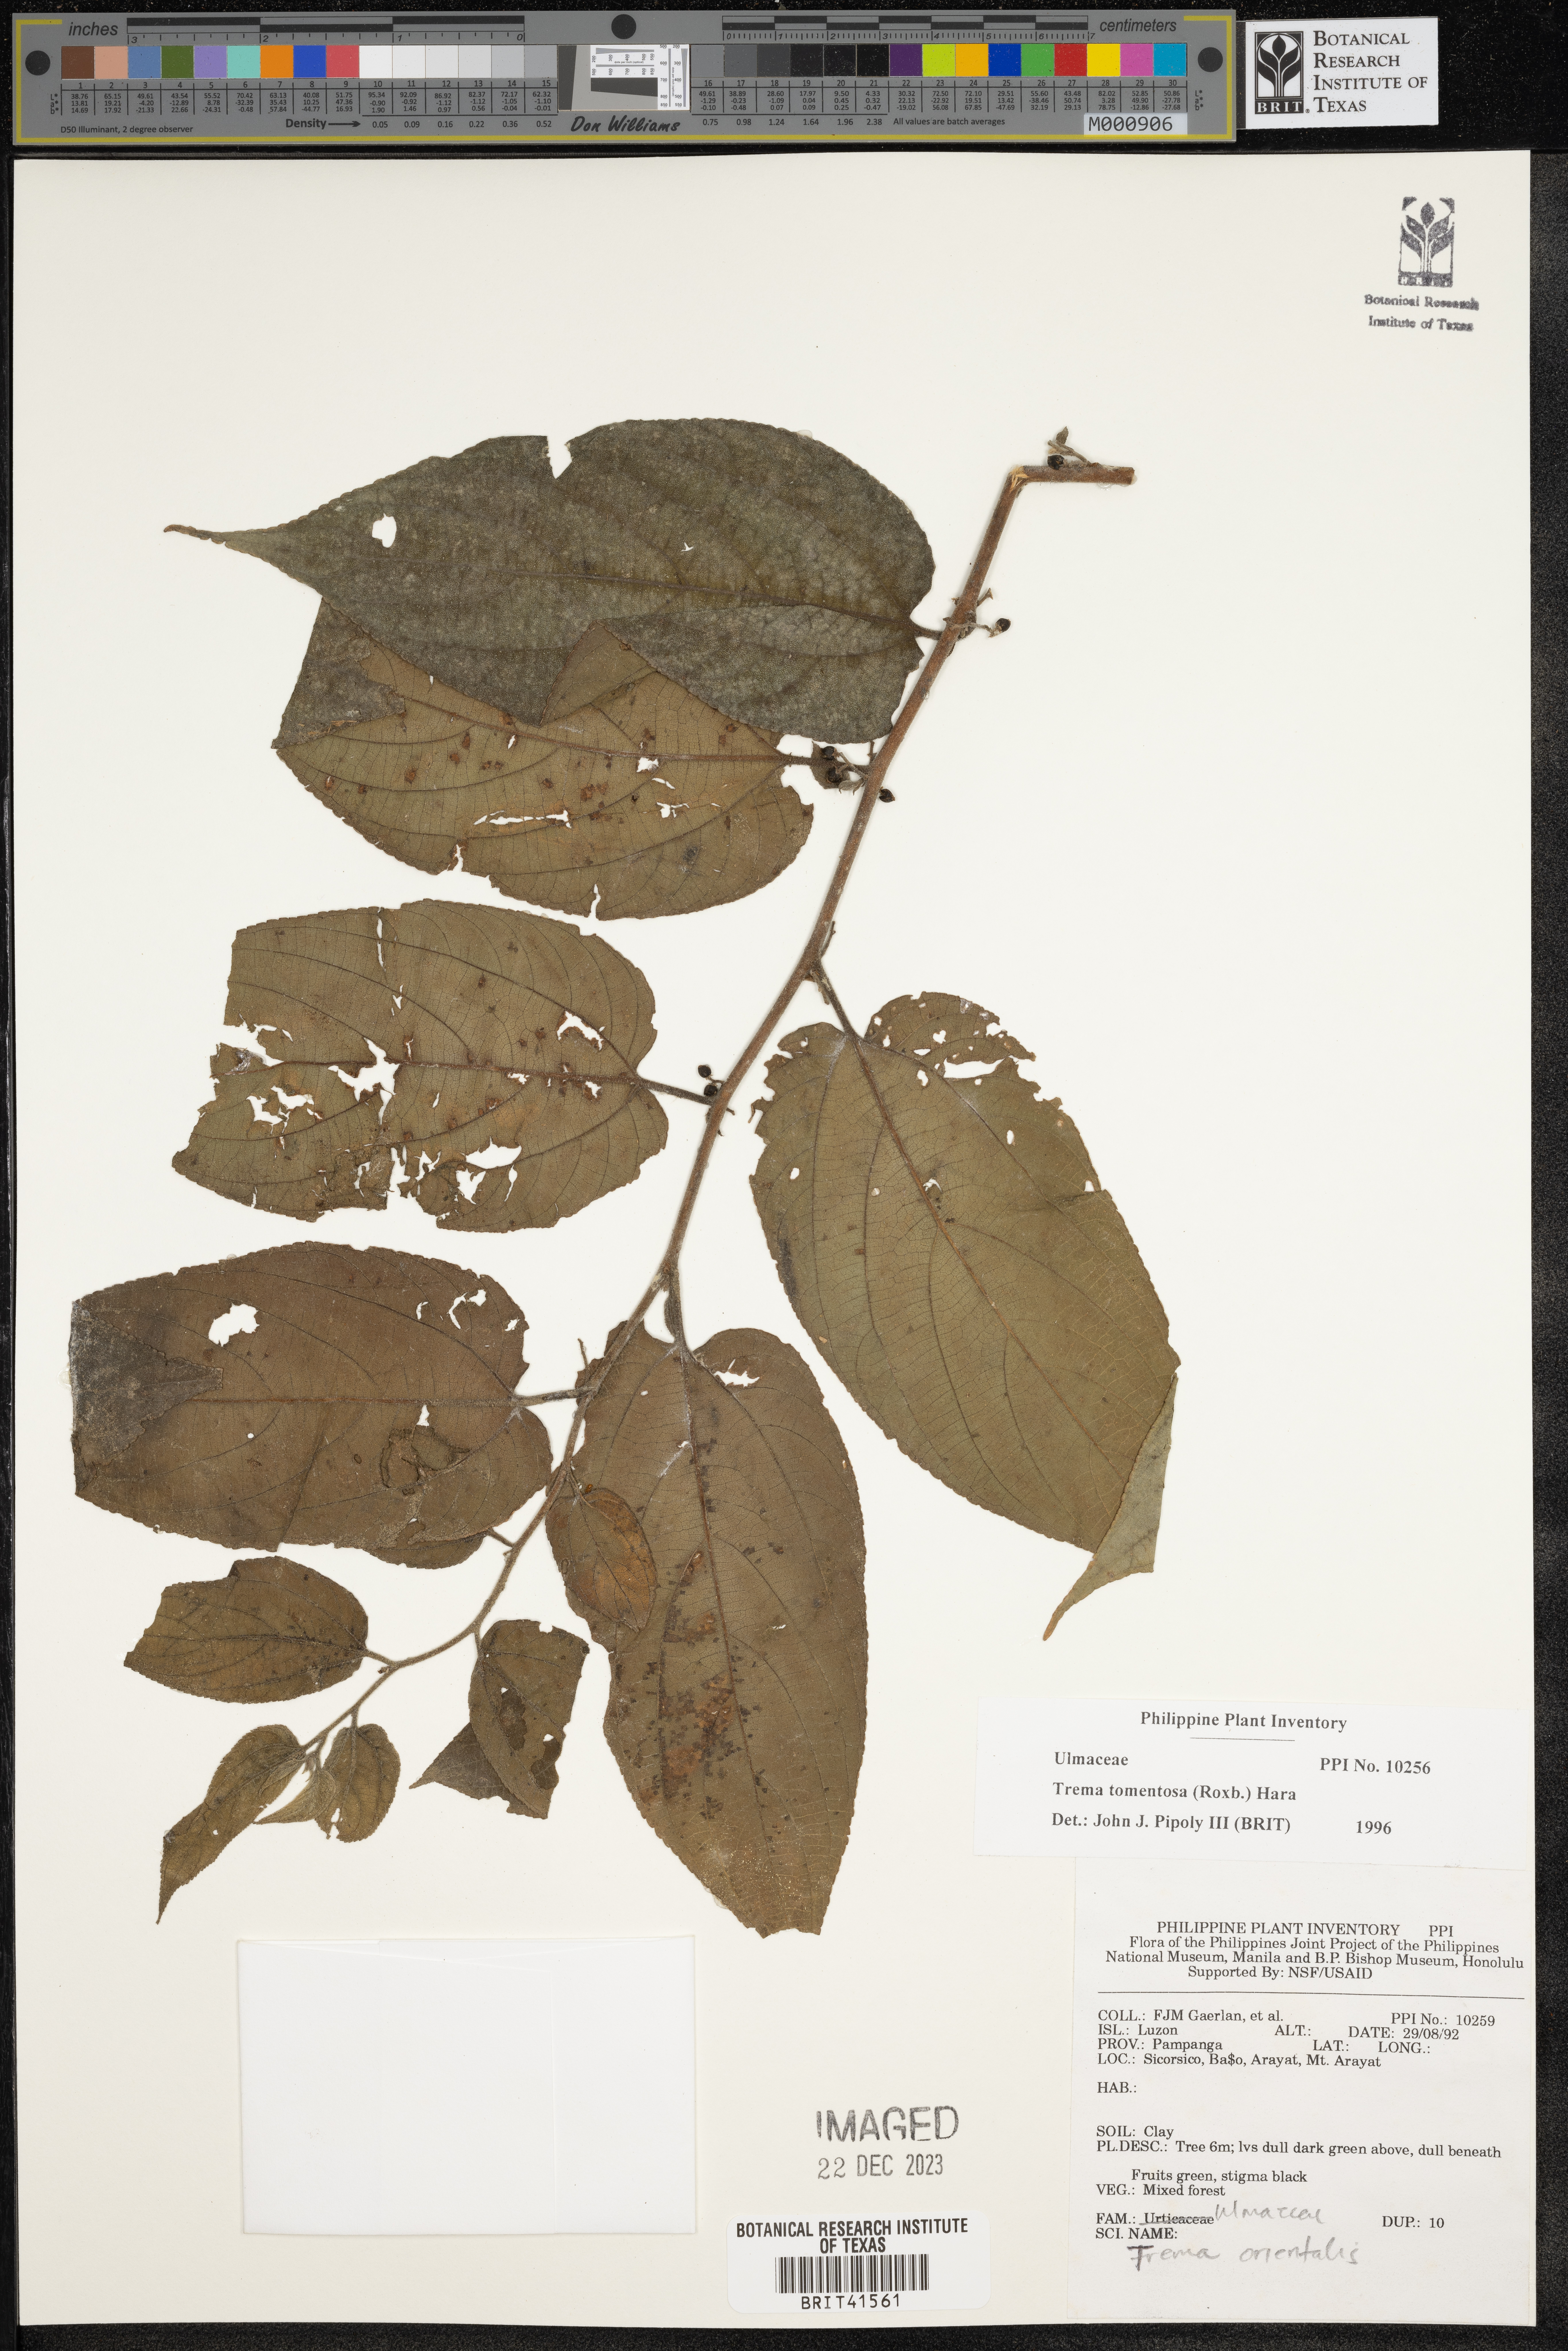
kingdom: Plantae
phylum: Tracheophyta
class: Magnoliopsida
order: Rosales
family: Cannabaceae
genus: Trema
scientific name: Trema tomentosum
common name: Peach-leaf-poisonbush
